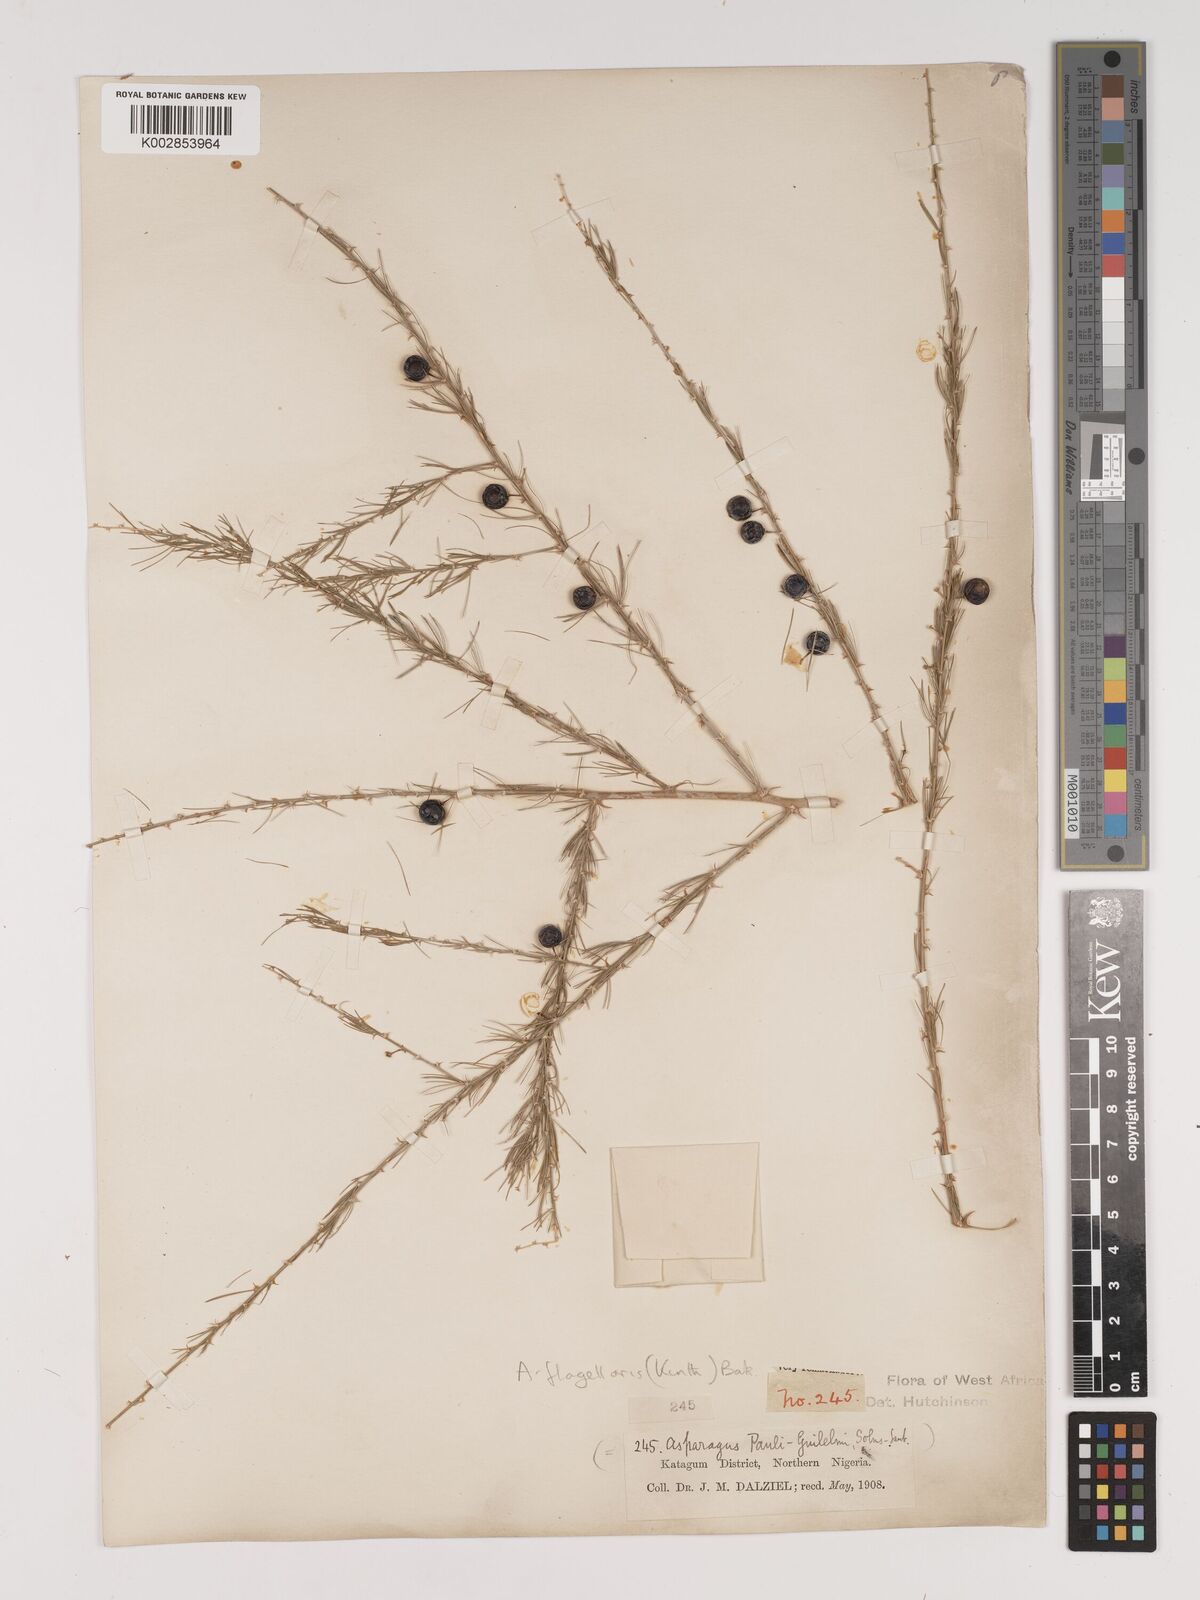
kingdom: Plantae
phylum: Tracheophyta
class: Liliopsida
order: Asparagales
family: Asparagaceae
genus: Asparagus
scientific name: Asparagus flagellaris
